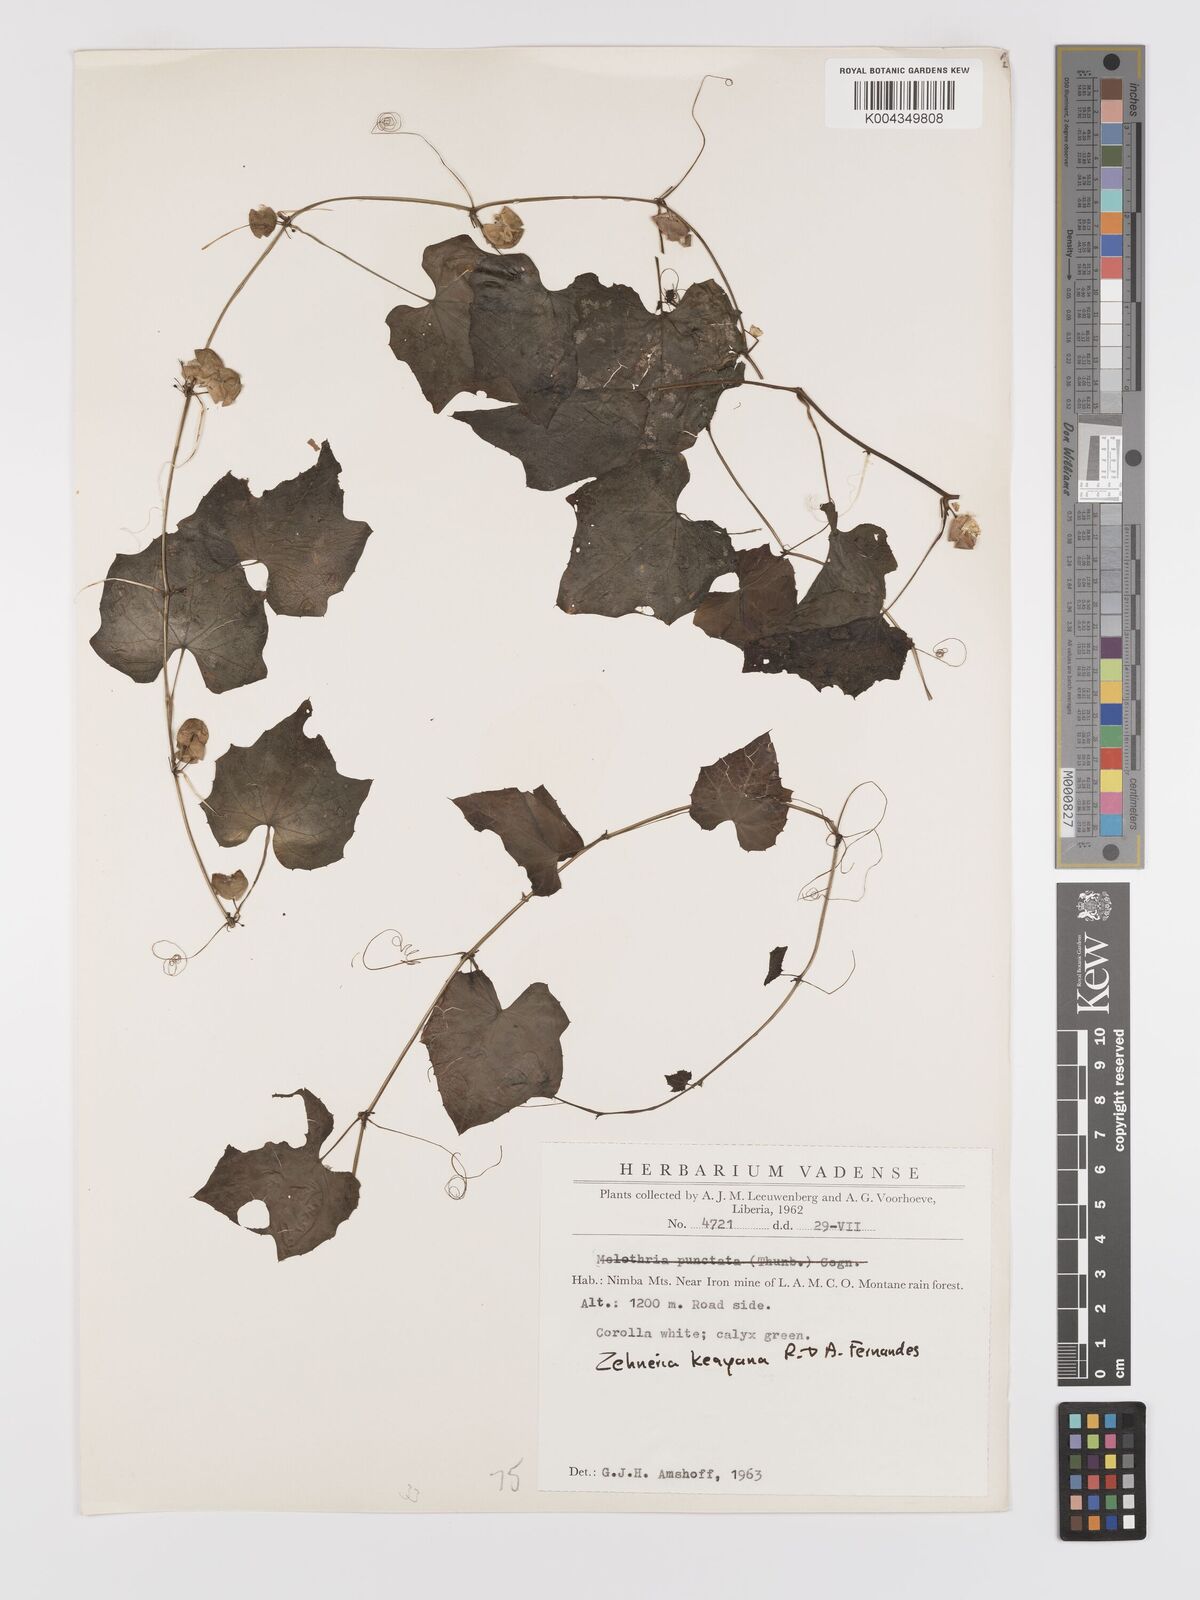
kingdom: Plantae
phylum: Tracheophyta
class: Magnoliopsida
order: Cucurbitales
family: Cucurbitaceae
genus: Zehneria
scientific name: Zehneria keayana
